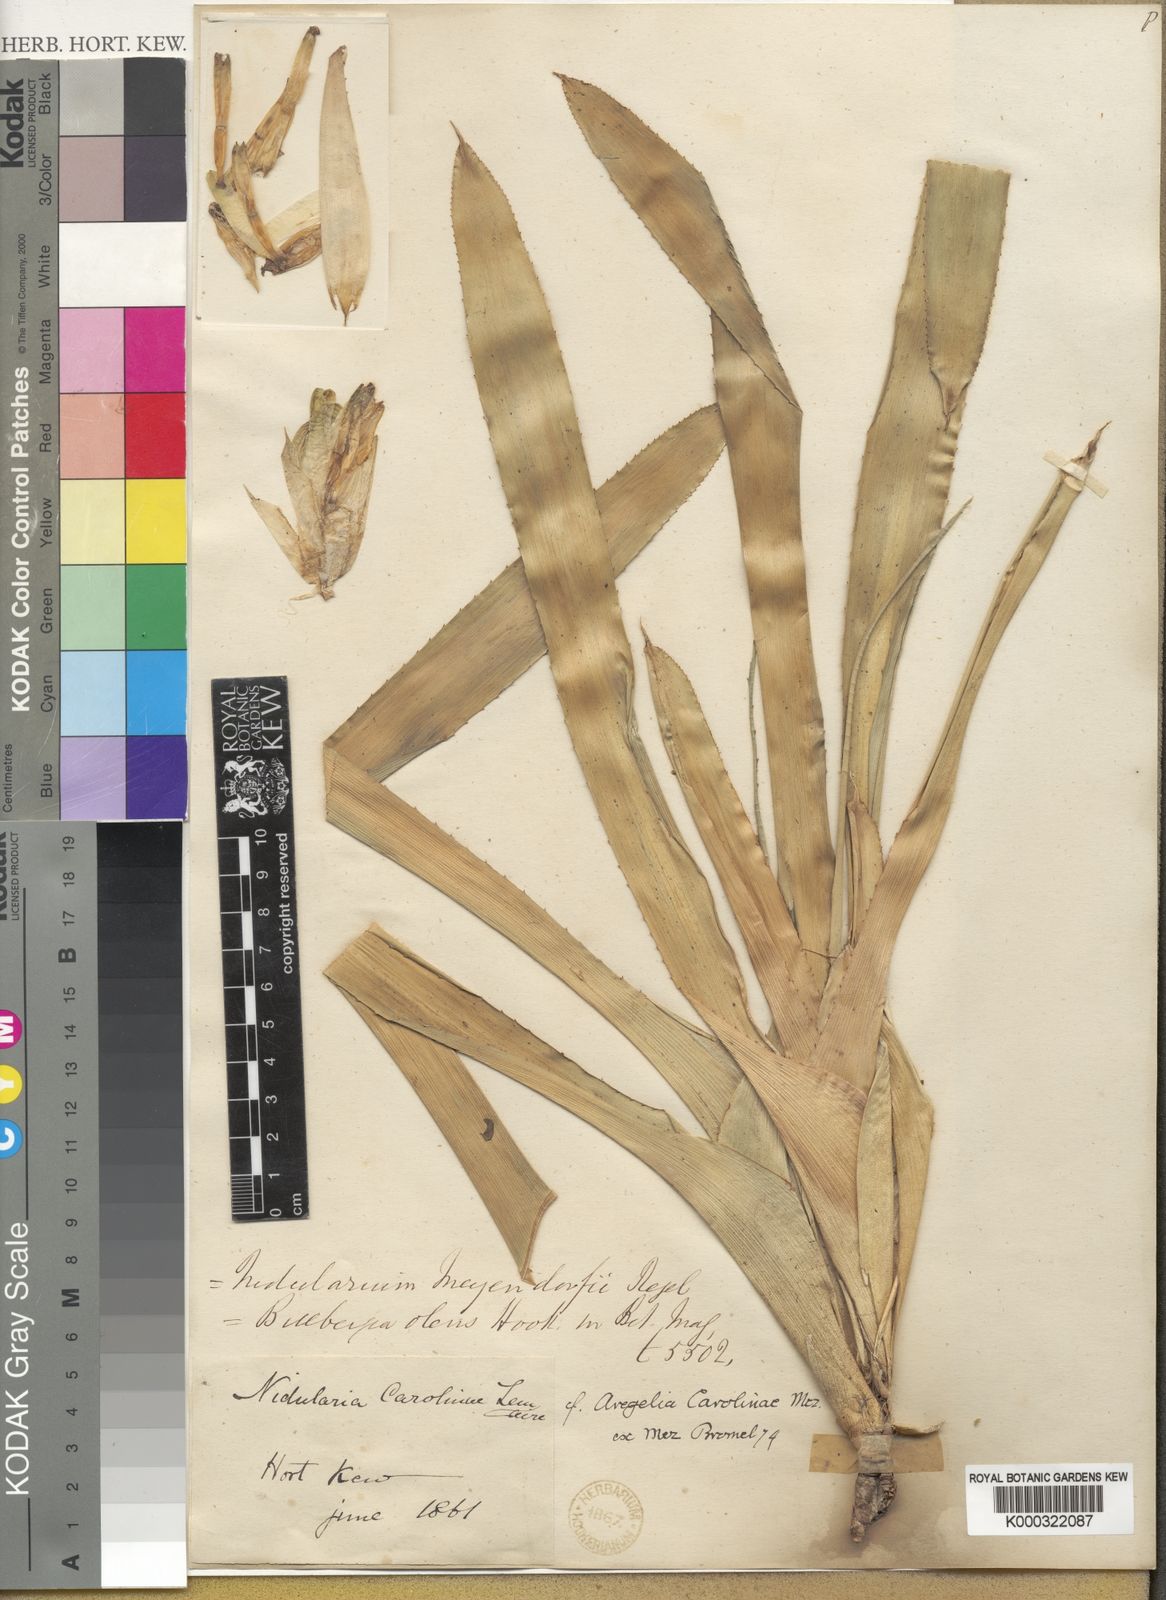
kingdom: Plantae
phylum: Tracheophyta
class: Liliopsida
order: Poales
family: Bromeliaceae
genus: Neoregelia
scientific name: Neoregelia carolinae
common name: Blushing bromeliad
